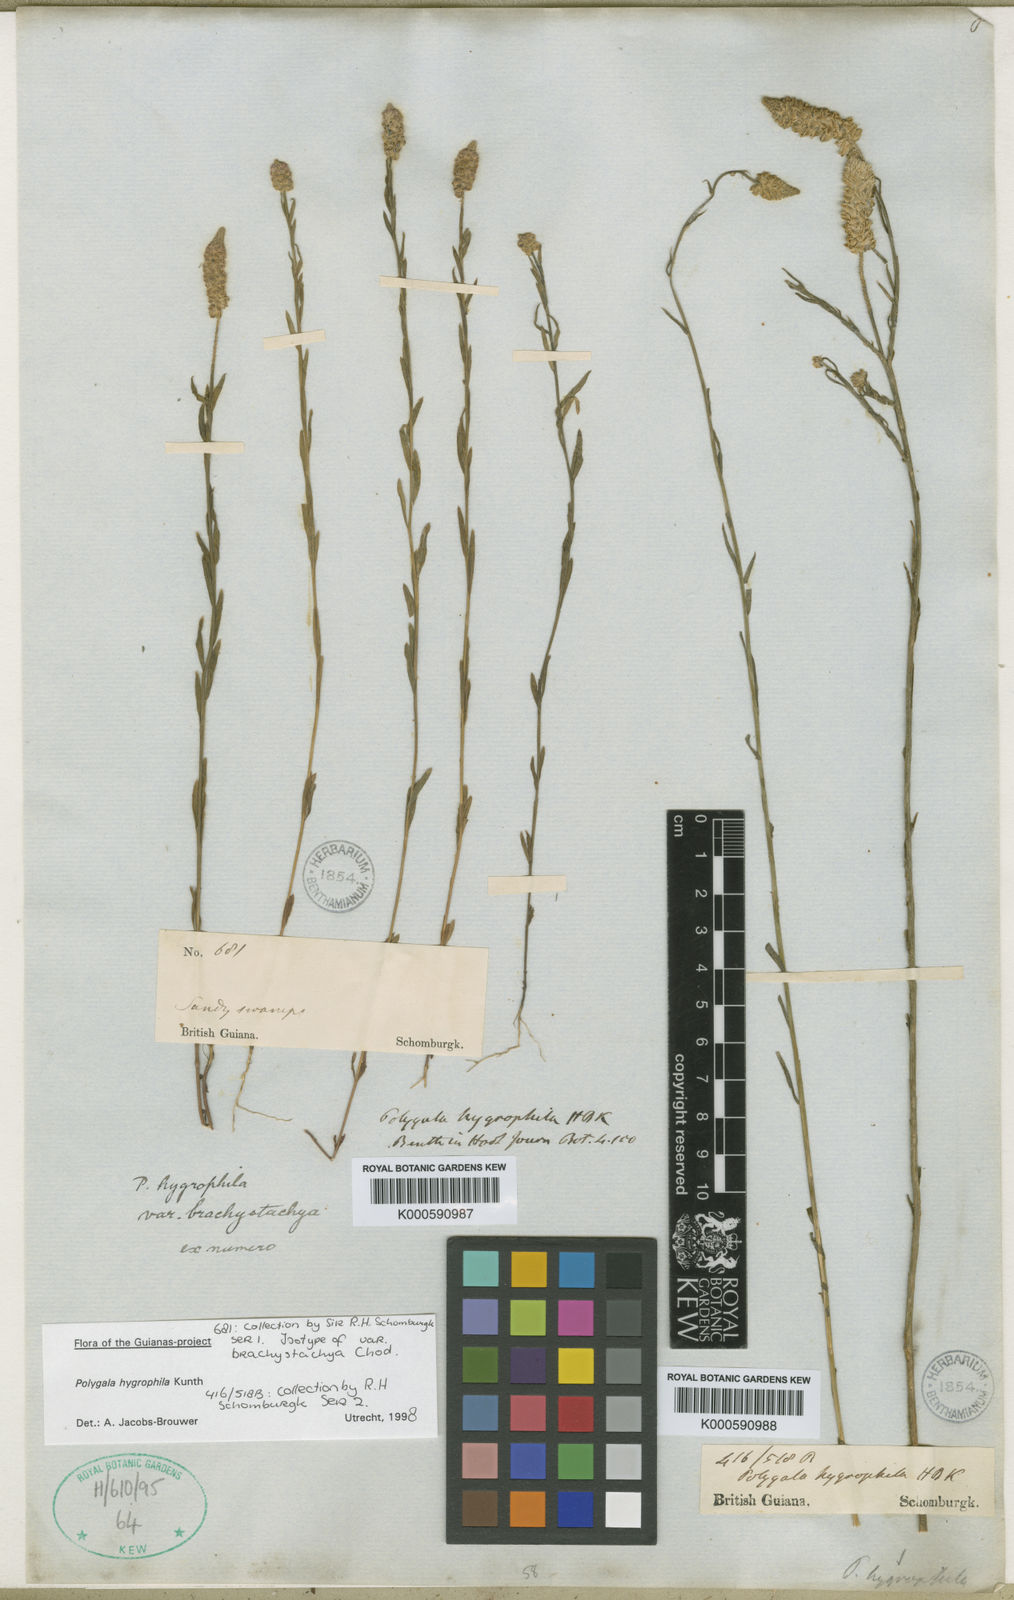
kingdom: Plantae
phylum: Tracheophyta
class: Magnoliopsida
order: Fabales
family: Polygalaceae
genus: Polygala
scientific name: Polygala hygrophila
